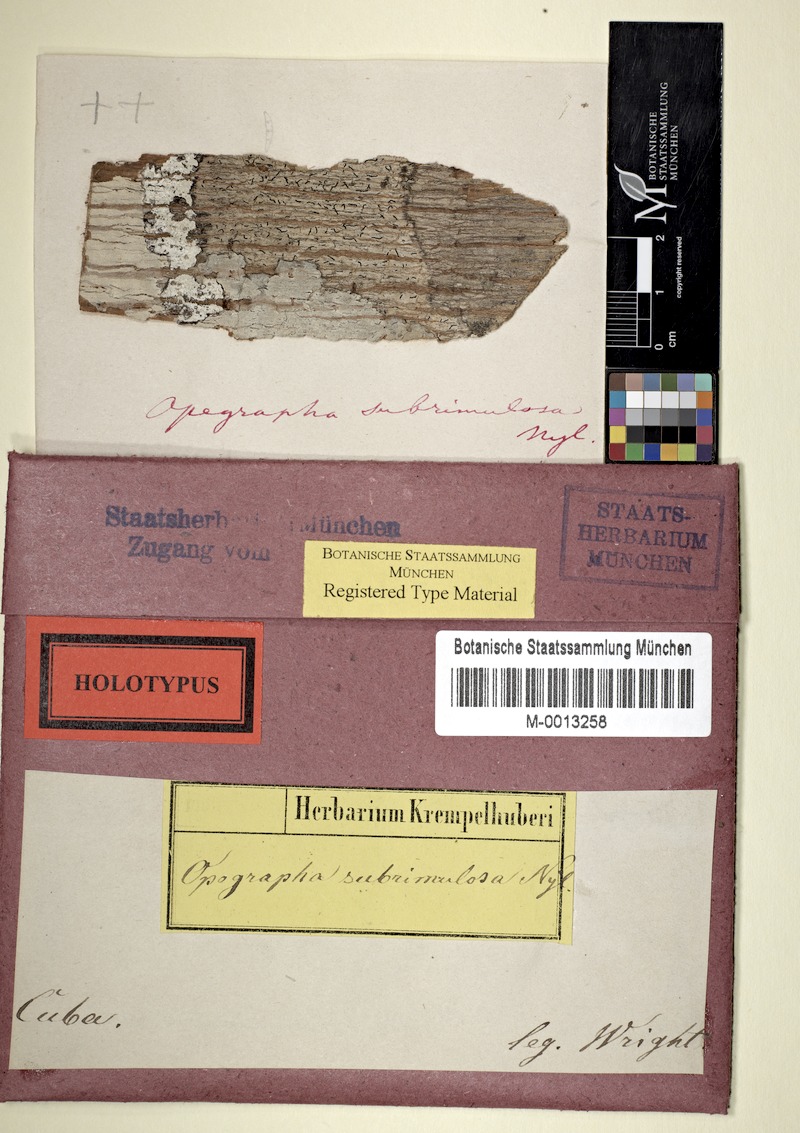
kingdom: Fungi
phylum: Ascomycota
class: Arthoniomycetes
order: Arthoniales
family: Opegraphaceae
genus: Opegrapha
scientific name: Opegrapha subrimulosa
